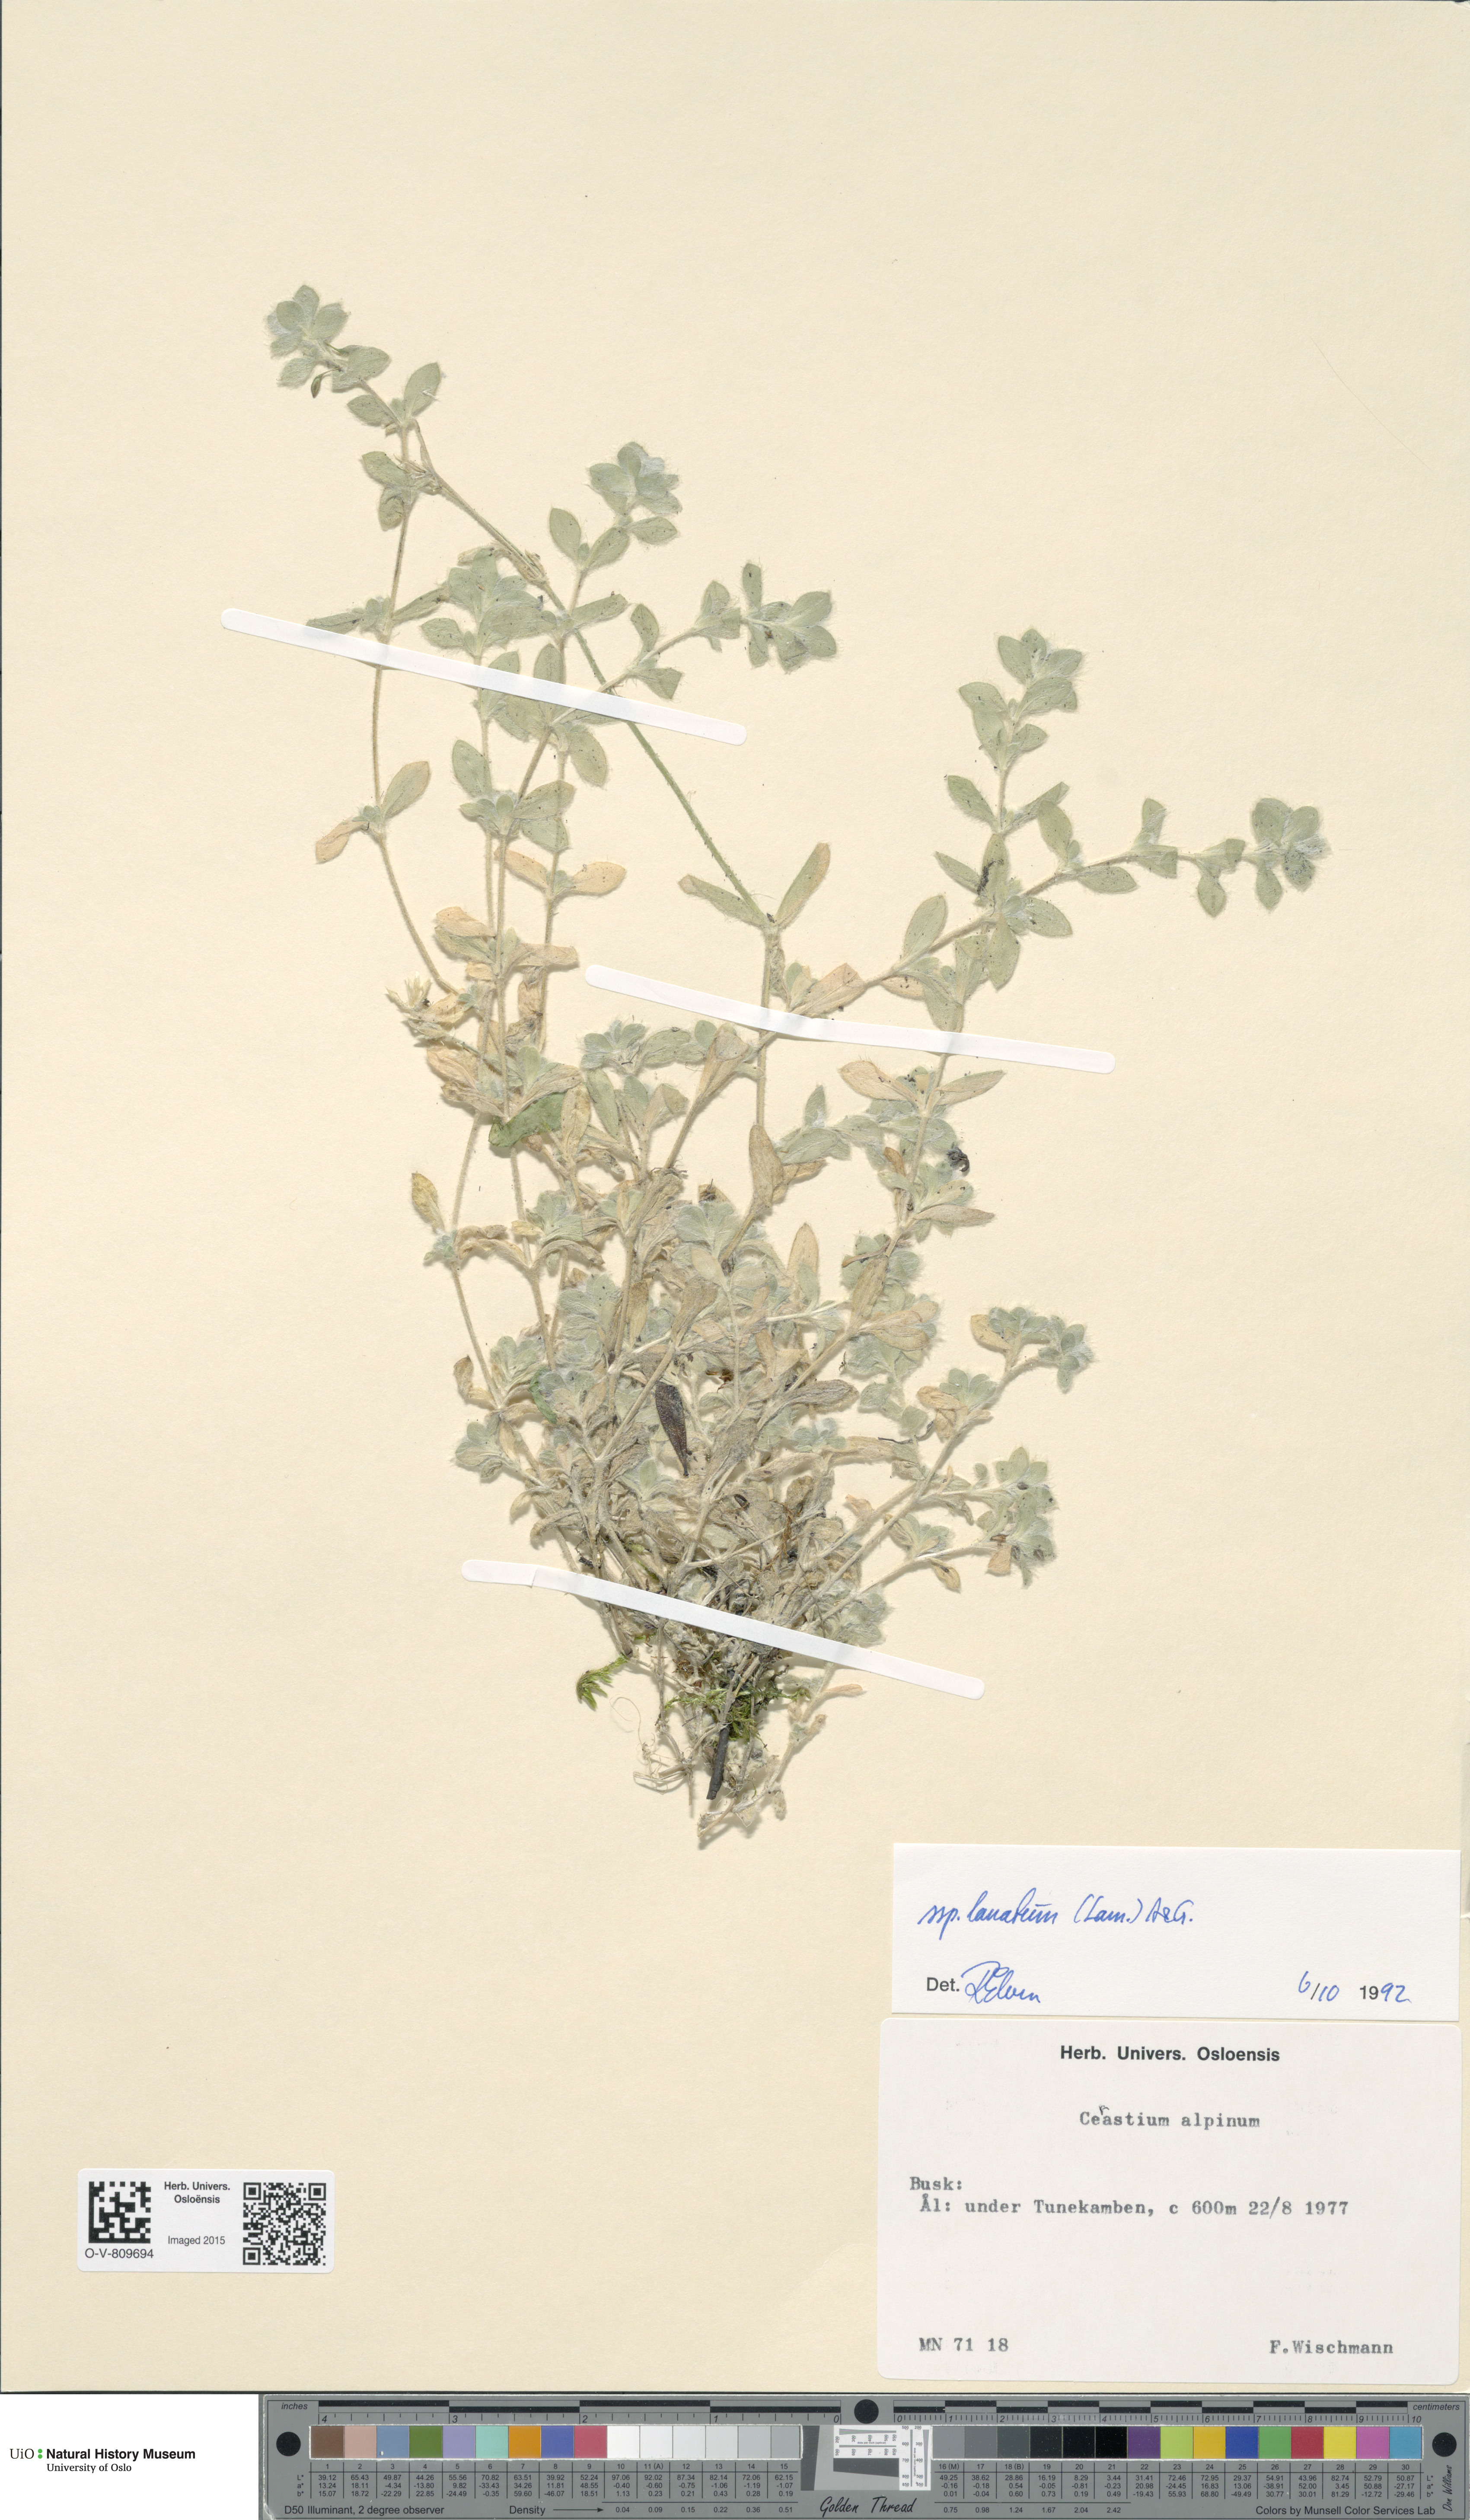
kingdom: Plantae
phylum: Tracheophyta
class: Magnoliopsida
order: Caryophyllales
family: Caryophyllaceae
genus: Cerastium
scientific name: Cerastium alpinum
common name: Alpine mouse-ear
